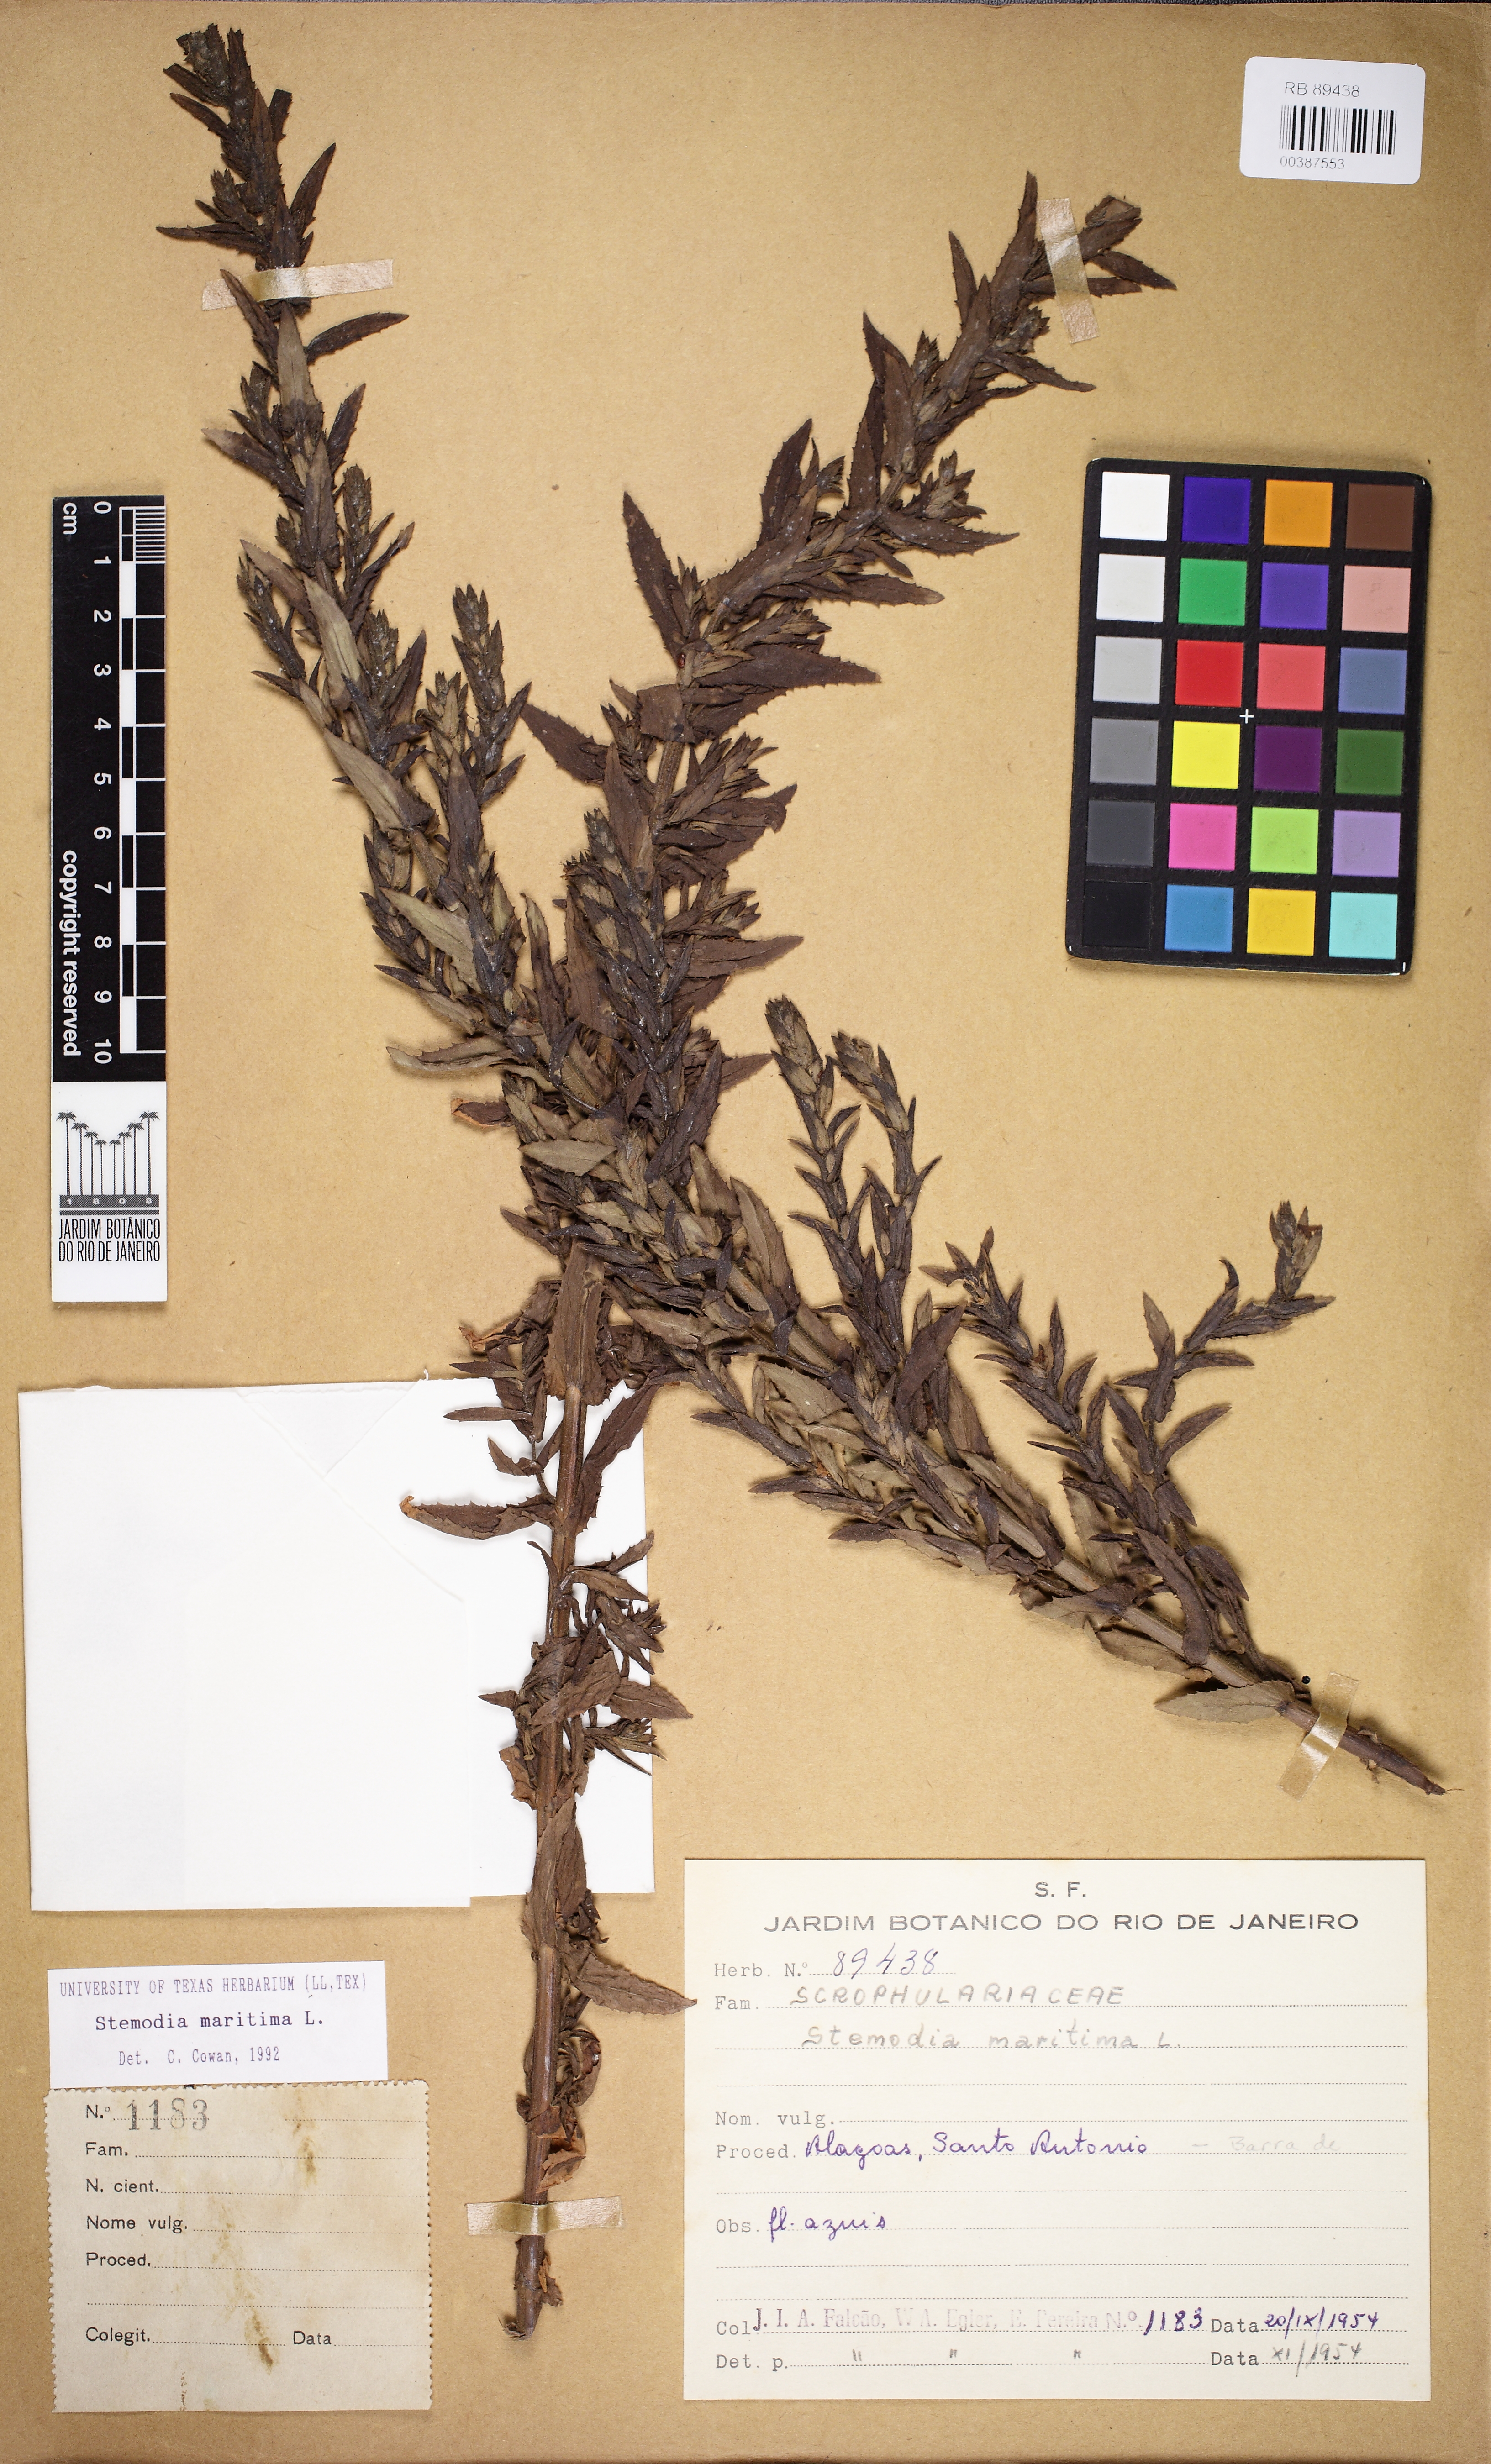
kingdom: Plantae
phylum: Tracheophyta
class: Magnoliopsida
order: Lamiales
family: Plantaginaceae
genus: Stemodia
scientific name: Stemodia maritima
